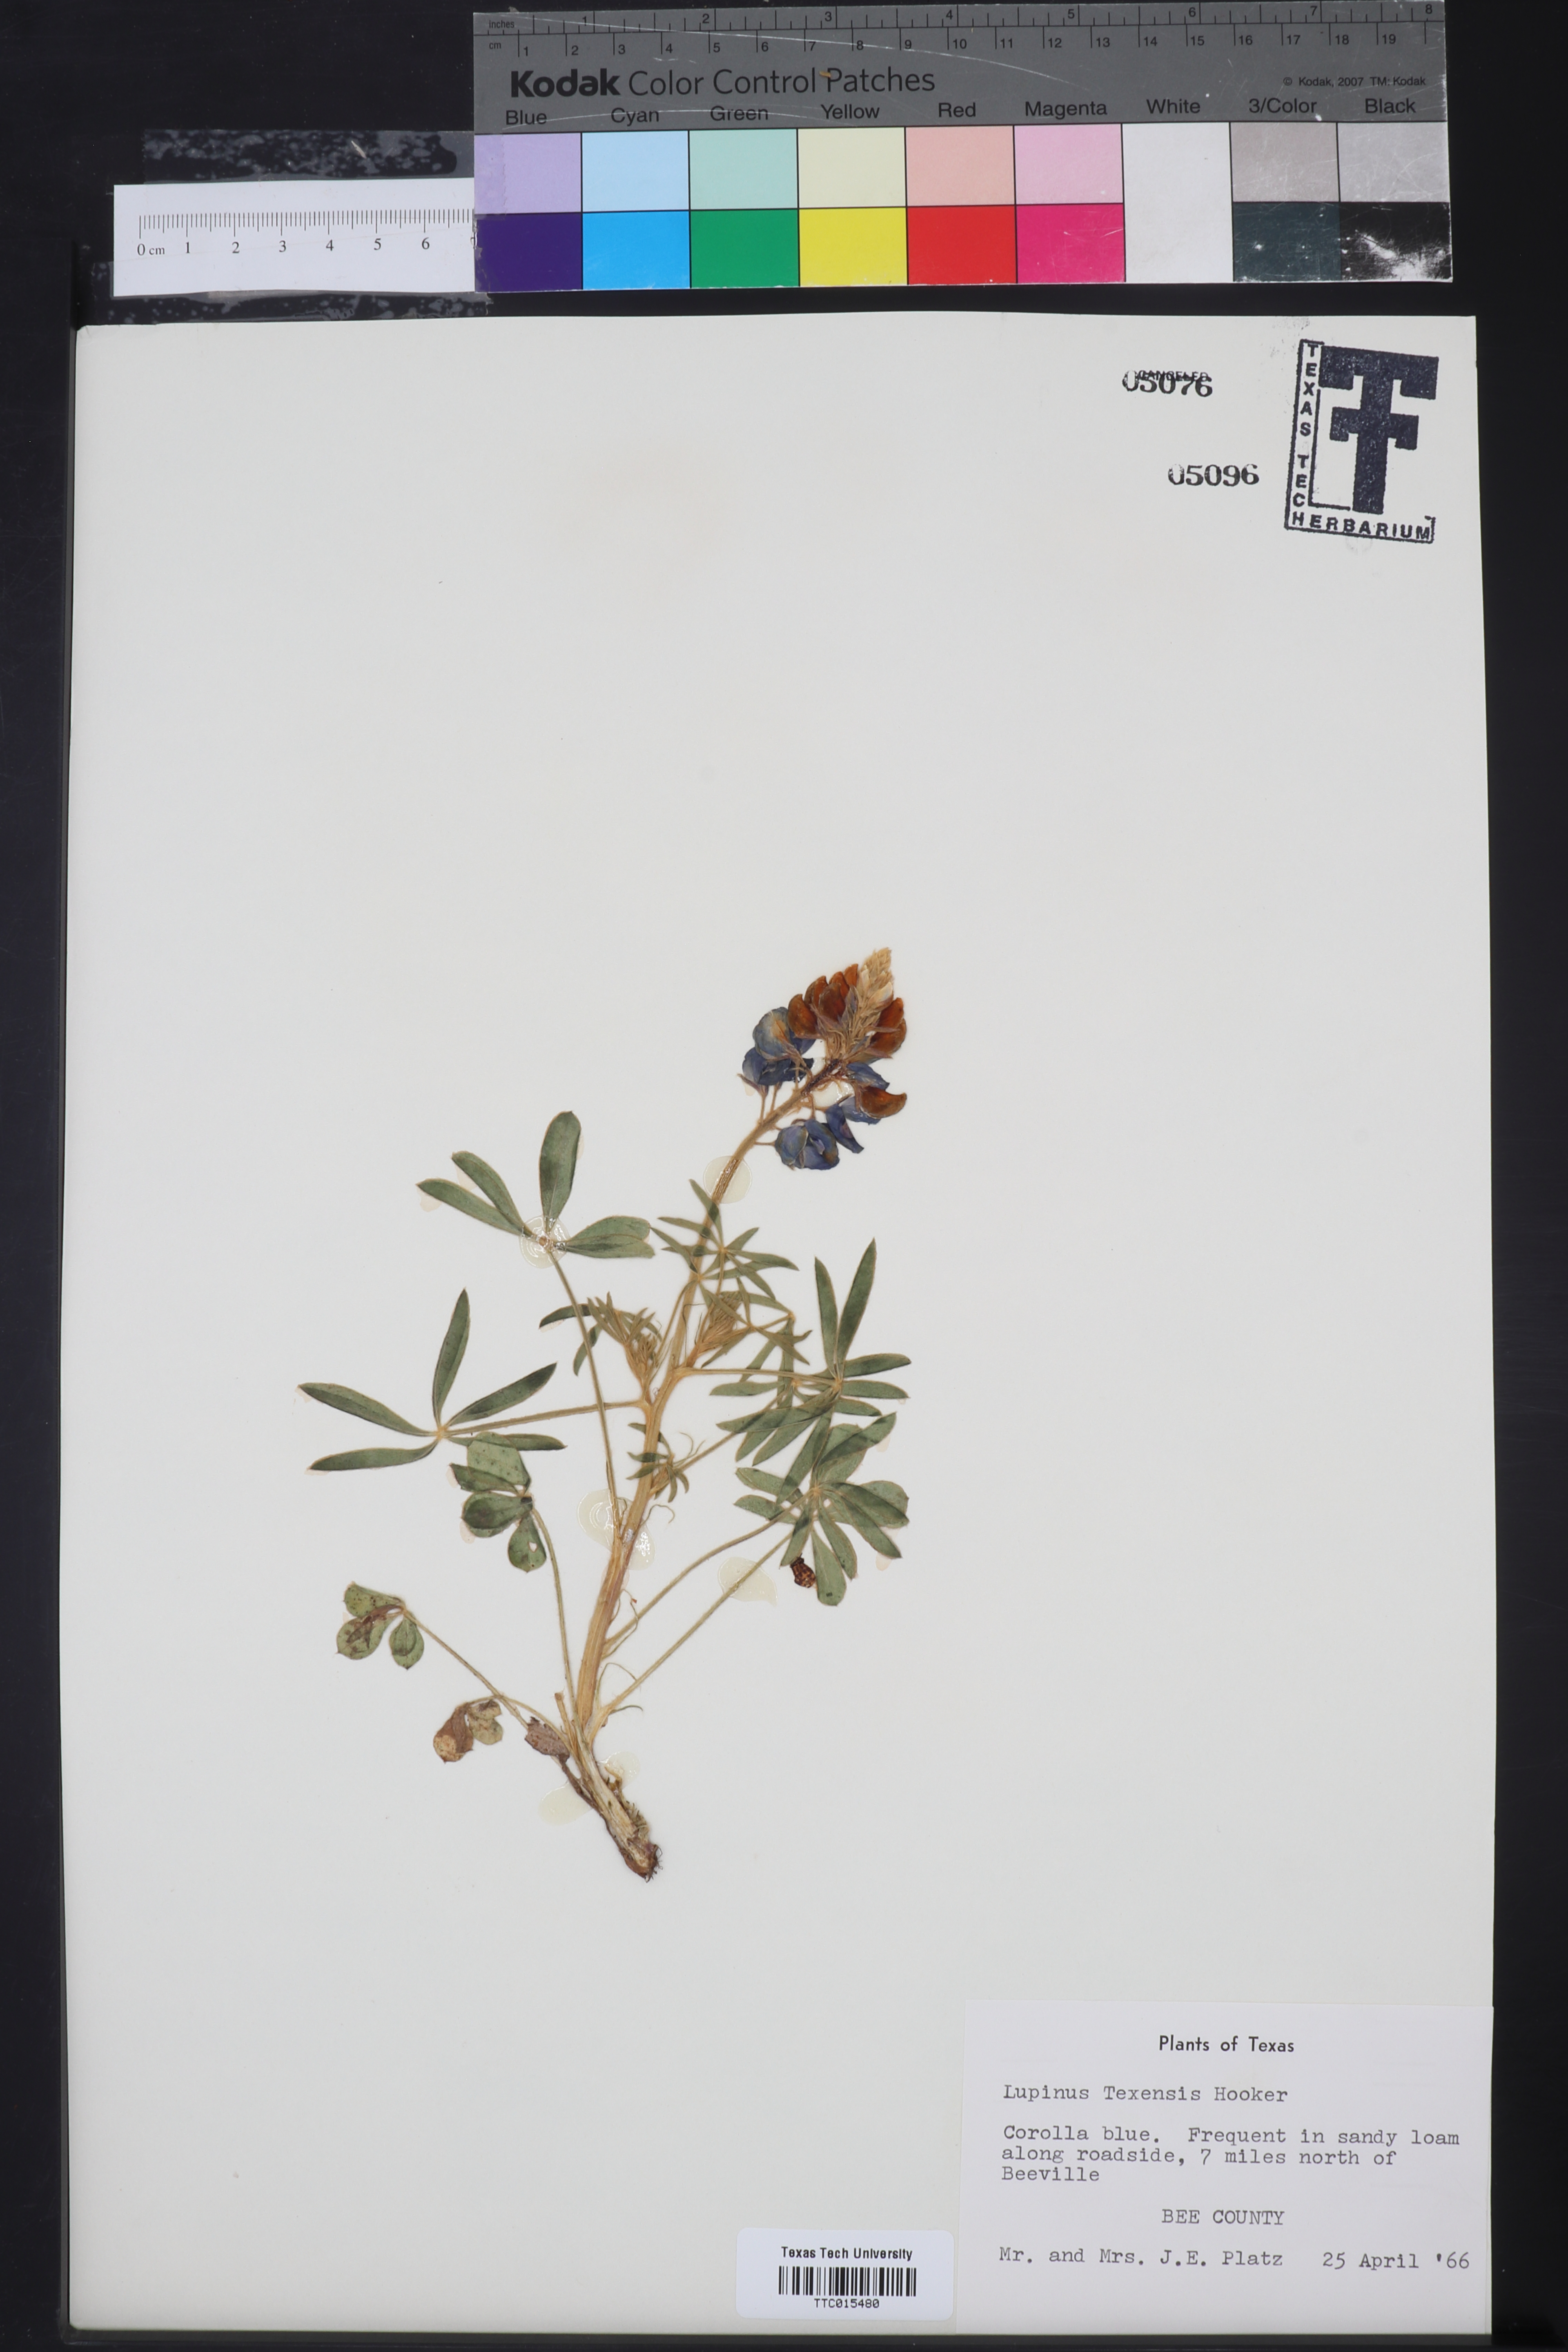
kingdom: Plantae
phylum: Tracheophyta
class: Magnoliopsida
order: Fabales
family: Fabaceae
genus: Lupinus
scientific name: Lupinus texensis
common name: Texas bluebonnet
